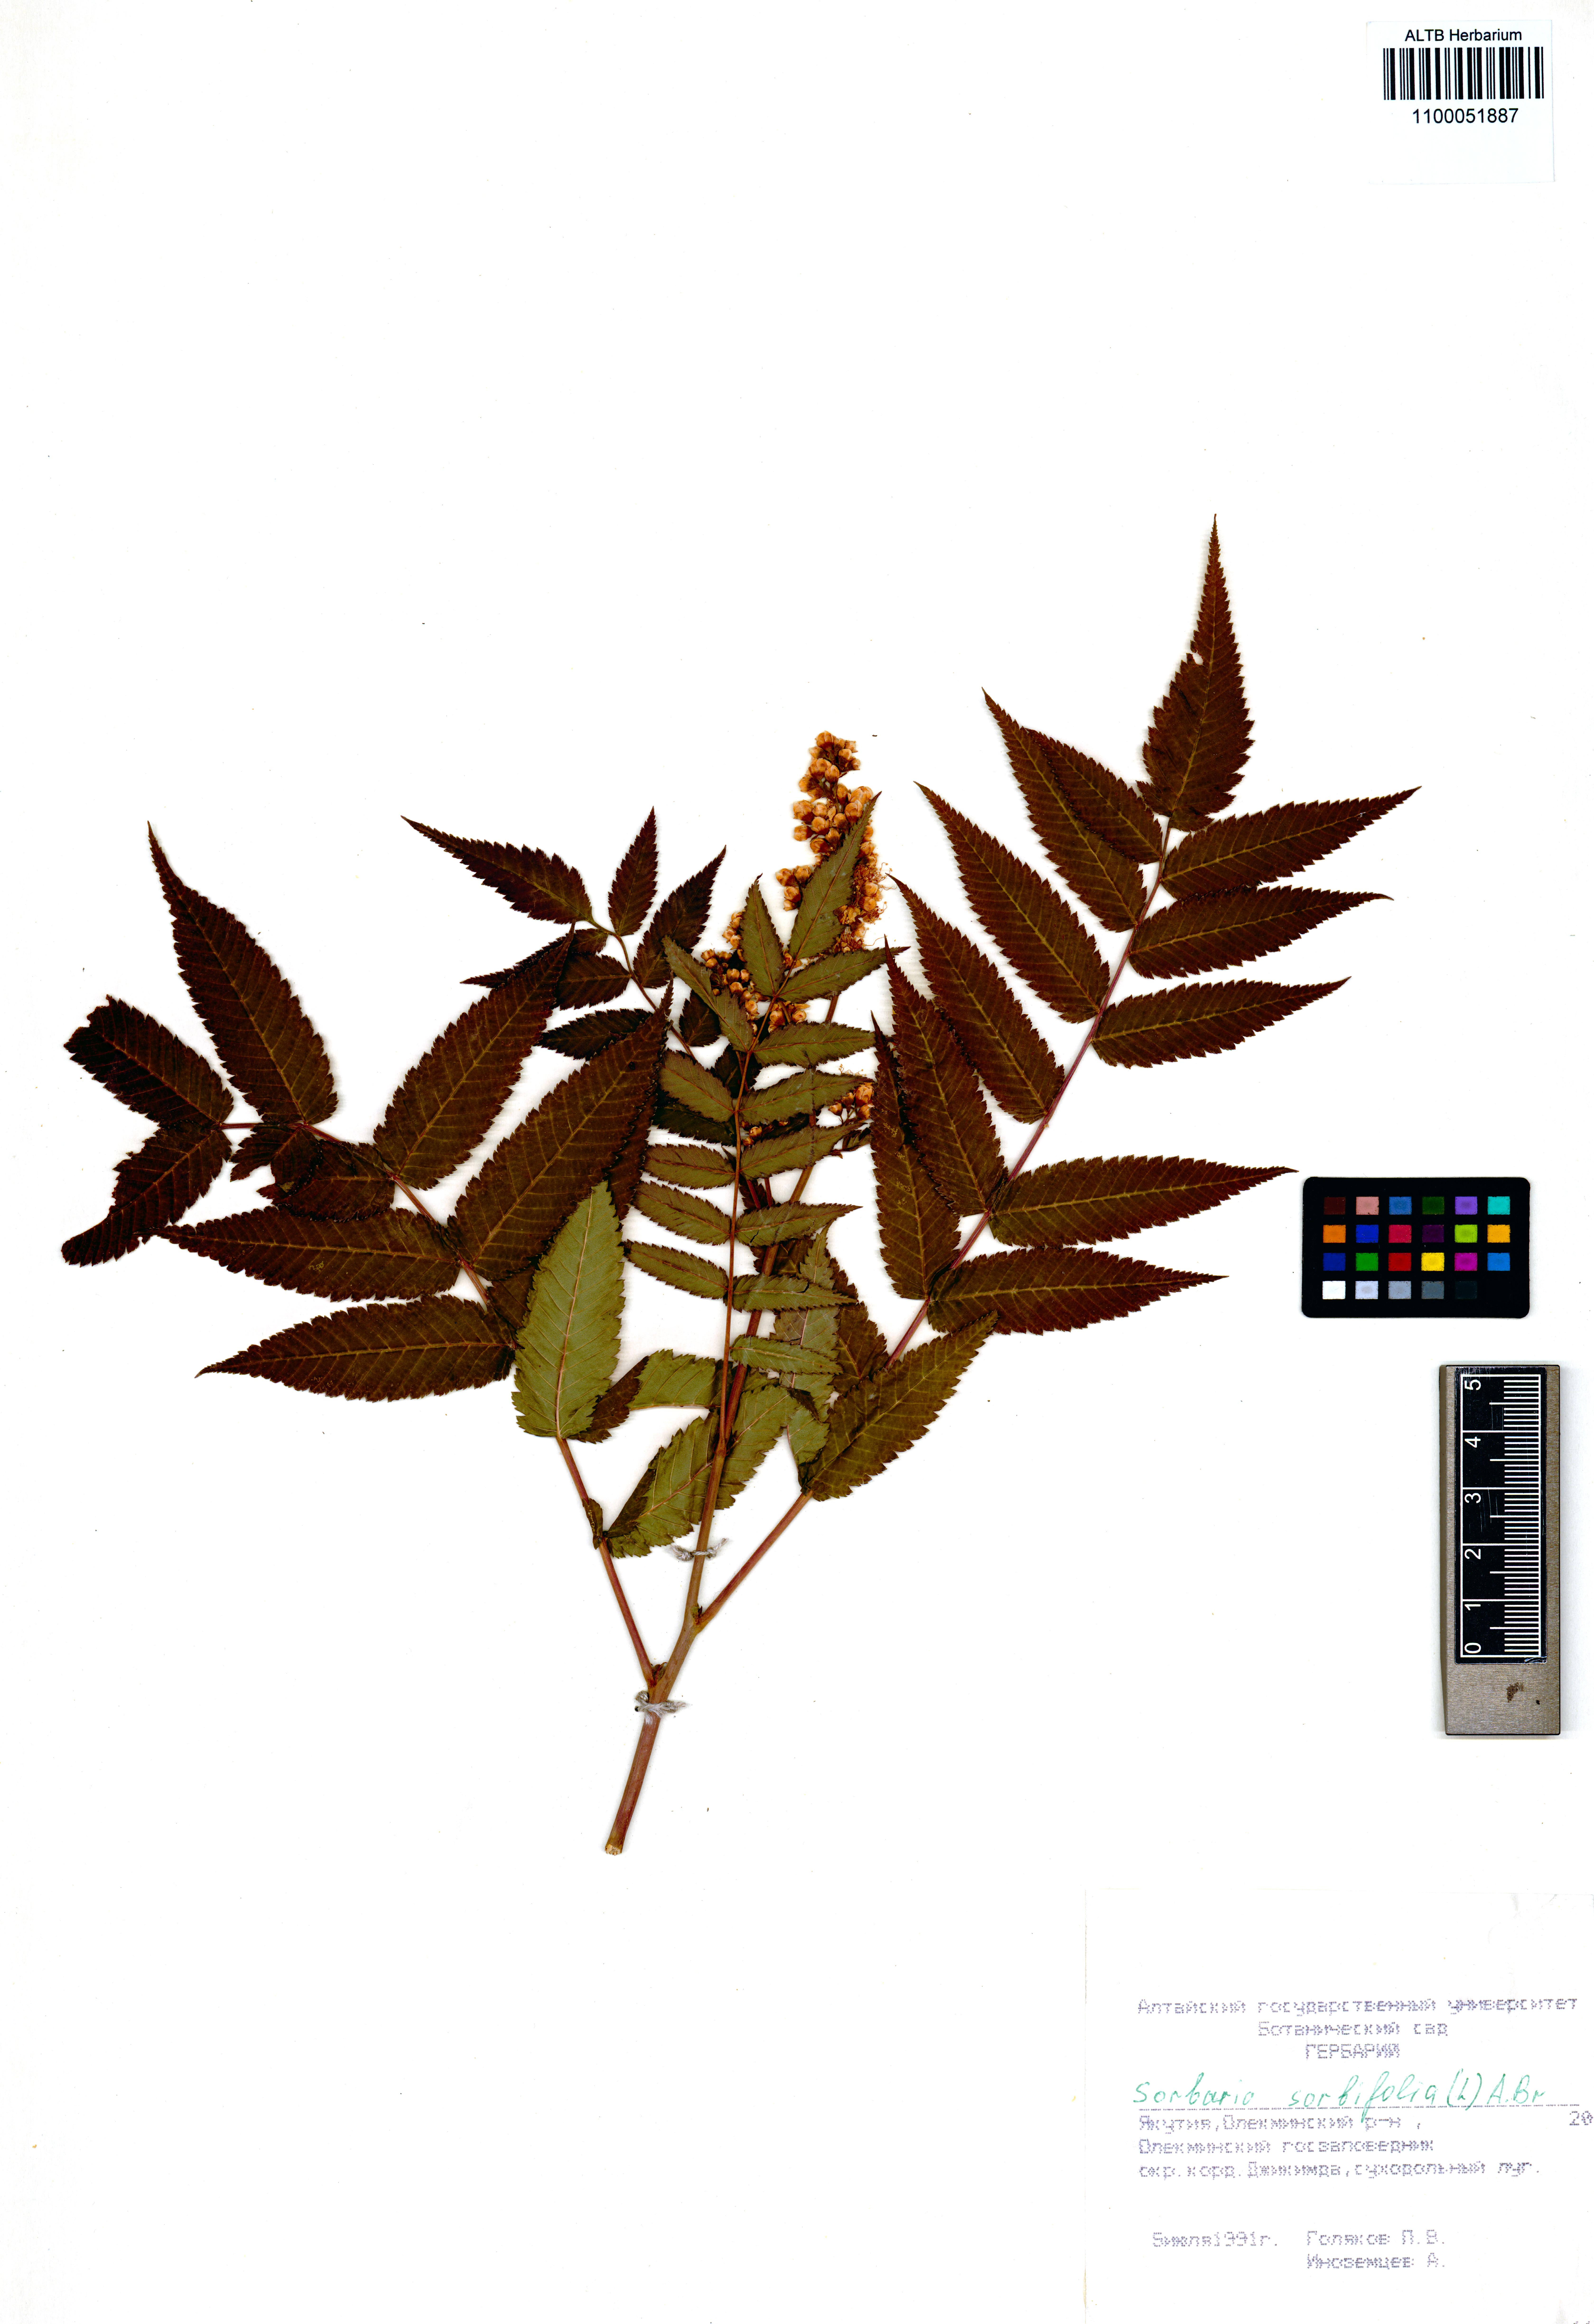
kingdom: Plantae
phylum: Tracheophyta
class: Magnoliopsida
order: Rosales
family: Rosaceae
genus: Sorbaria
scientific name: Sorbaria sorbifolia
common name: False spiraea
